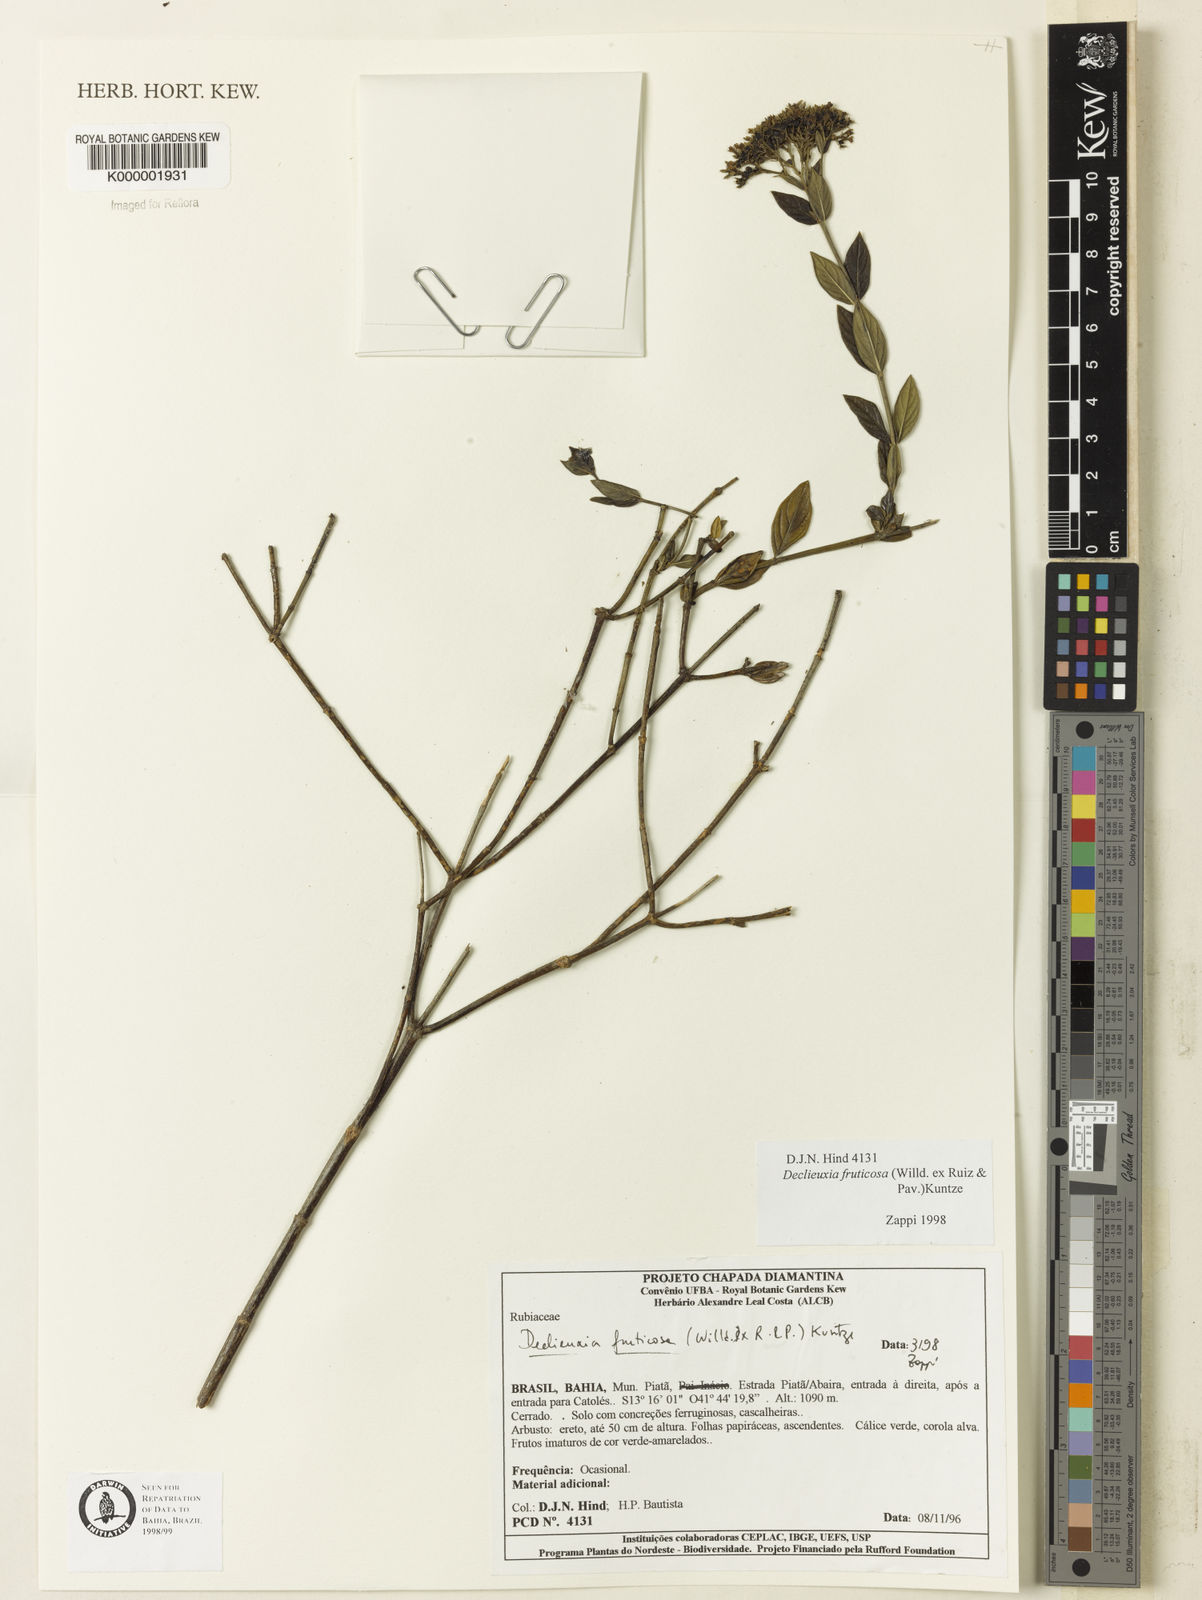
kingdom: Plantae
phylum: Tracheophyta
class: Magnoliopsida
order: Gentianales
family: Rubiaceae
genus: Declieuxia
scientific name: Declieuxia fruticosa
